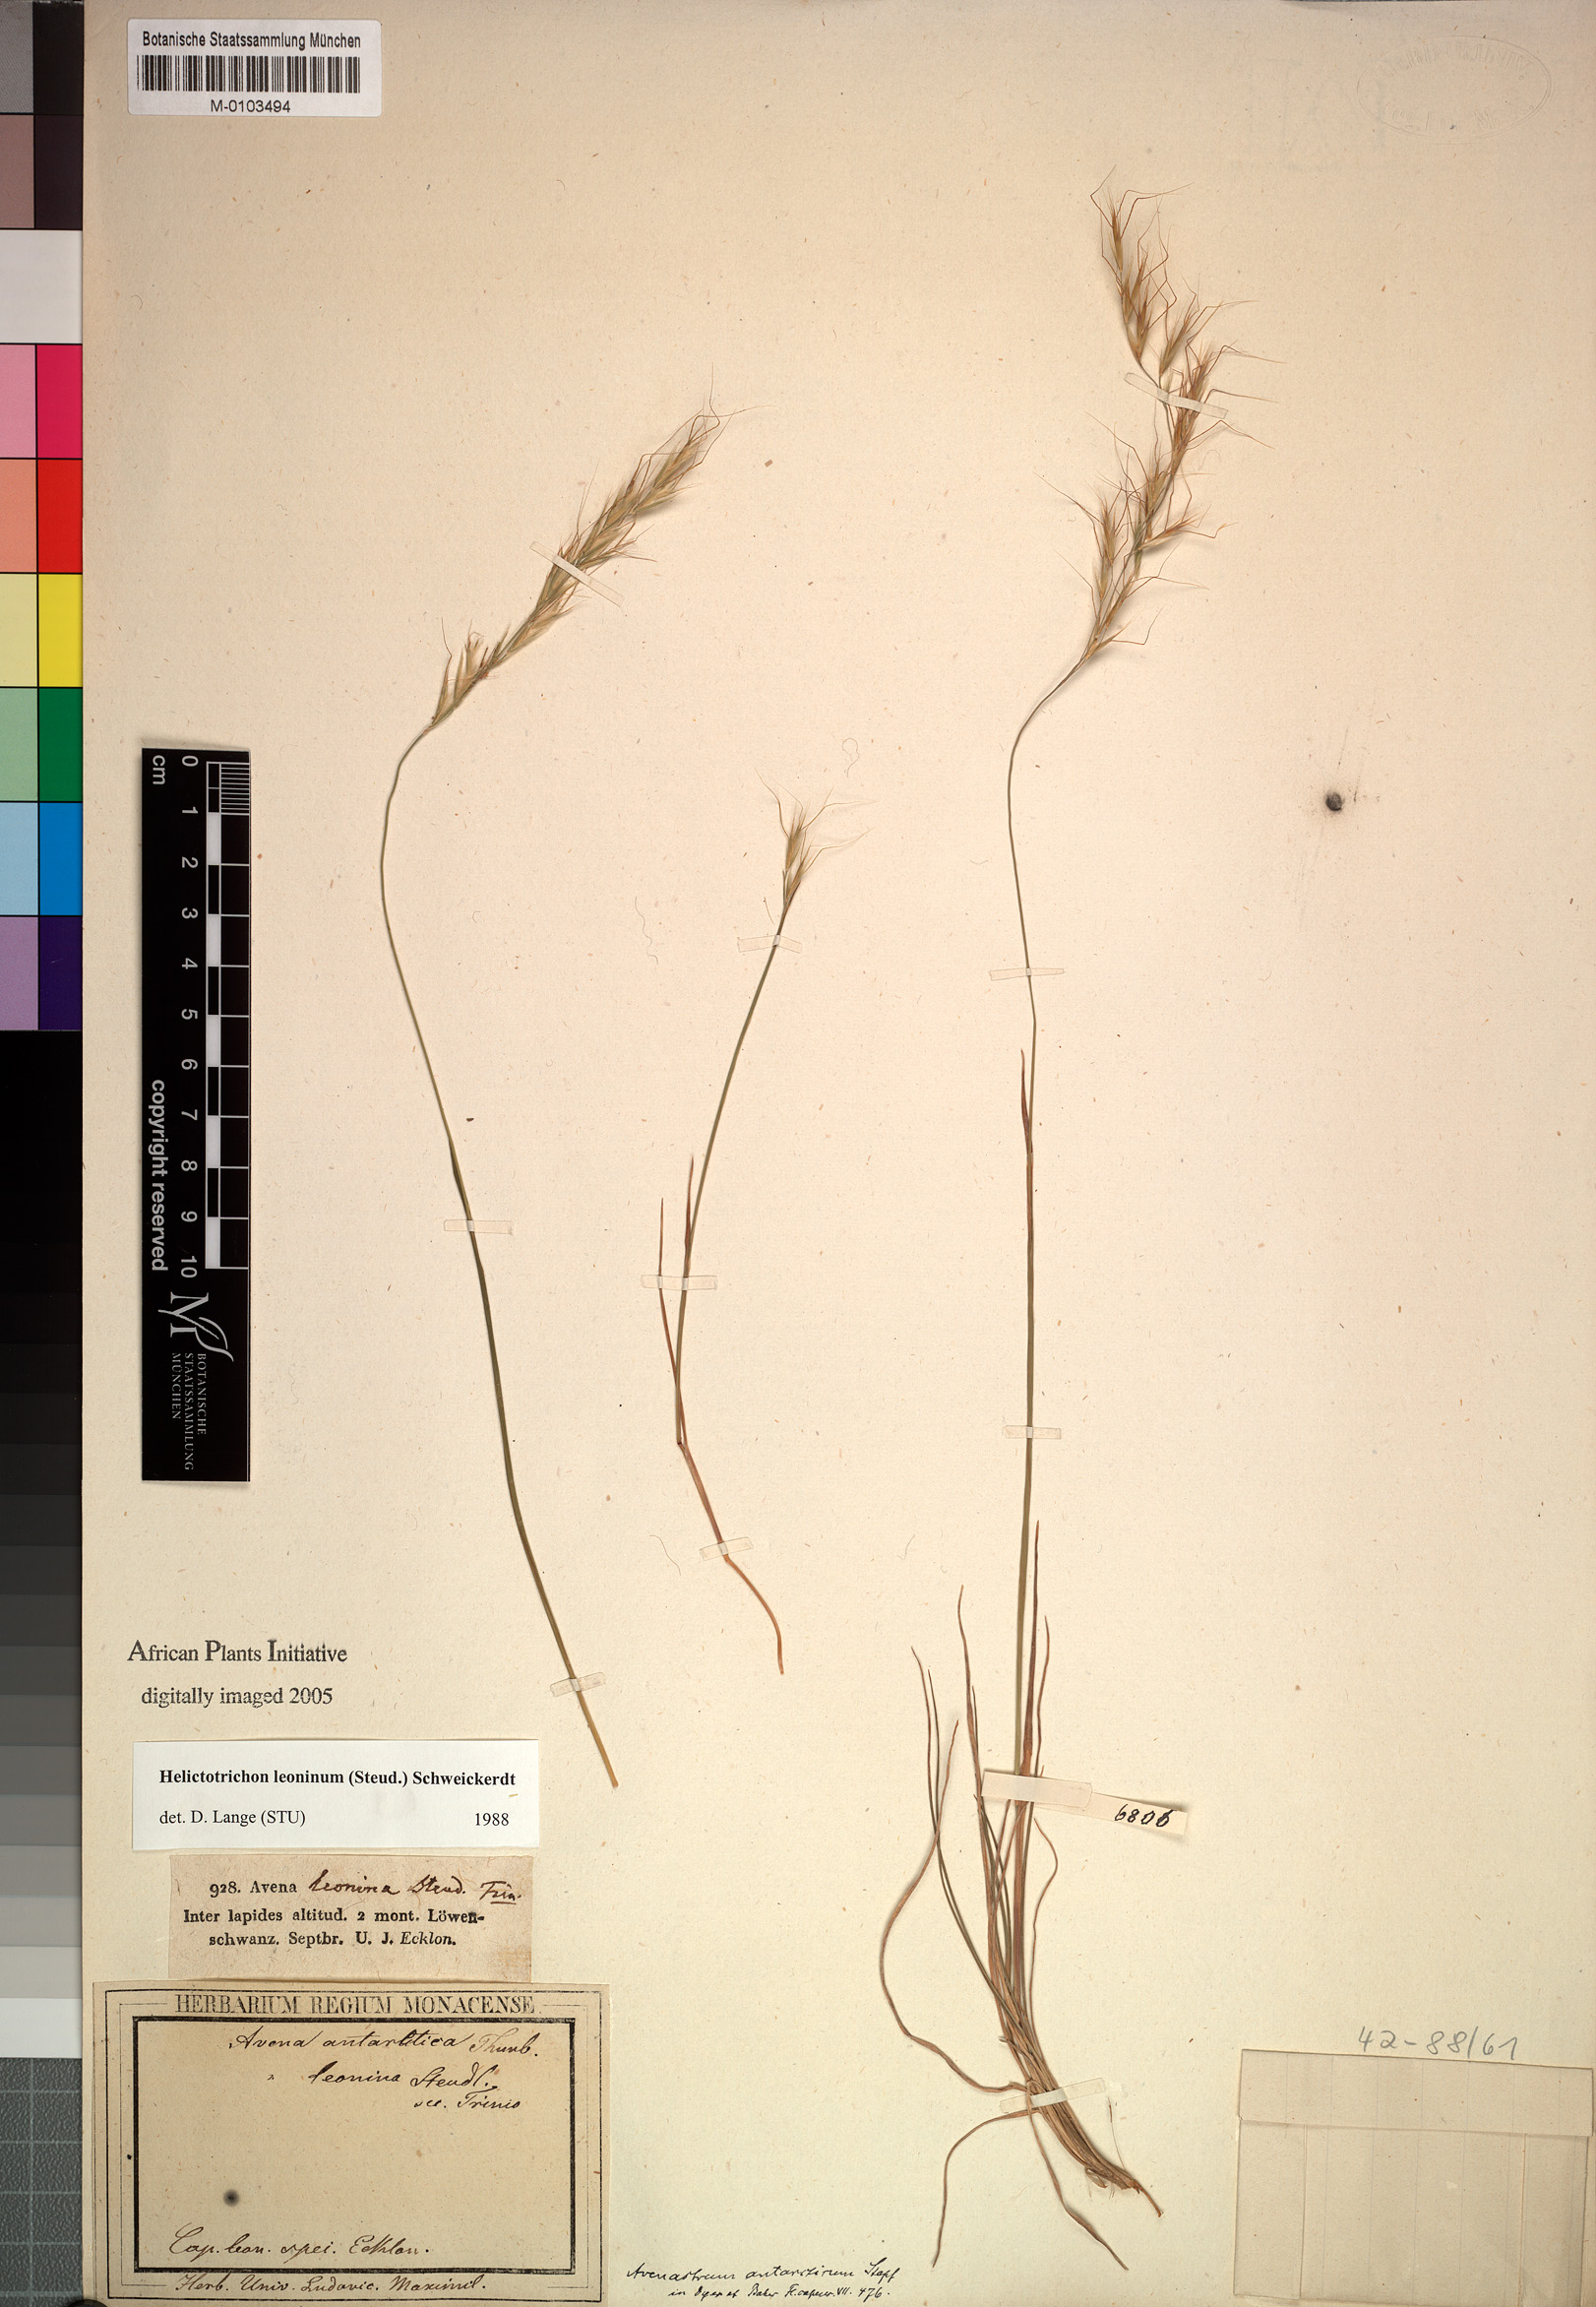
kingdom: Plantae
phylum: Tracheophyta
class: Liliopsida
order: Poales
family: Poaceae
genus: Trisetopsis
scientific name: Trisetopsis leonina
